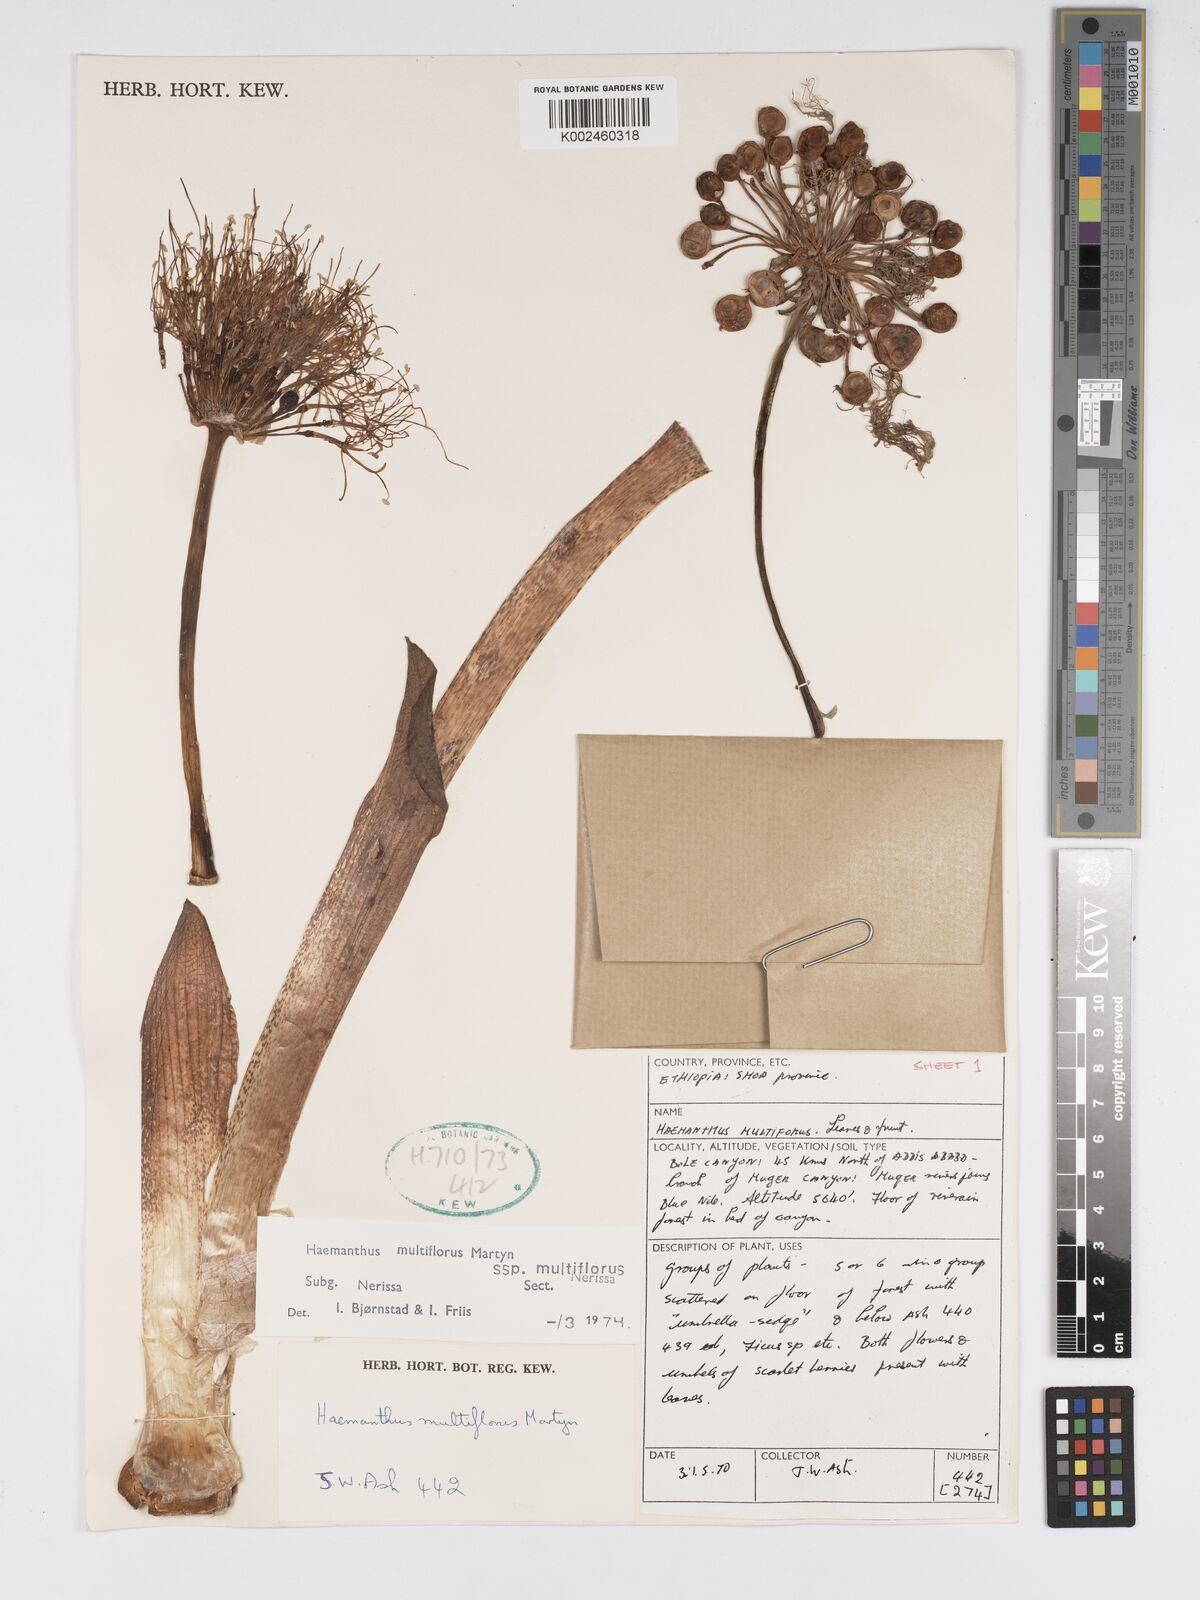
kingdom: Plantae
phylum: Tracheophyta
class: Liliopsida
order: Asparagales
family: Amaryllidaceae
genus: Scadoxus
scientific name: Scadoxus multiflorus
